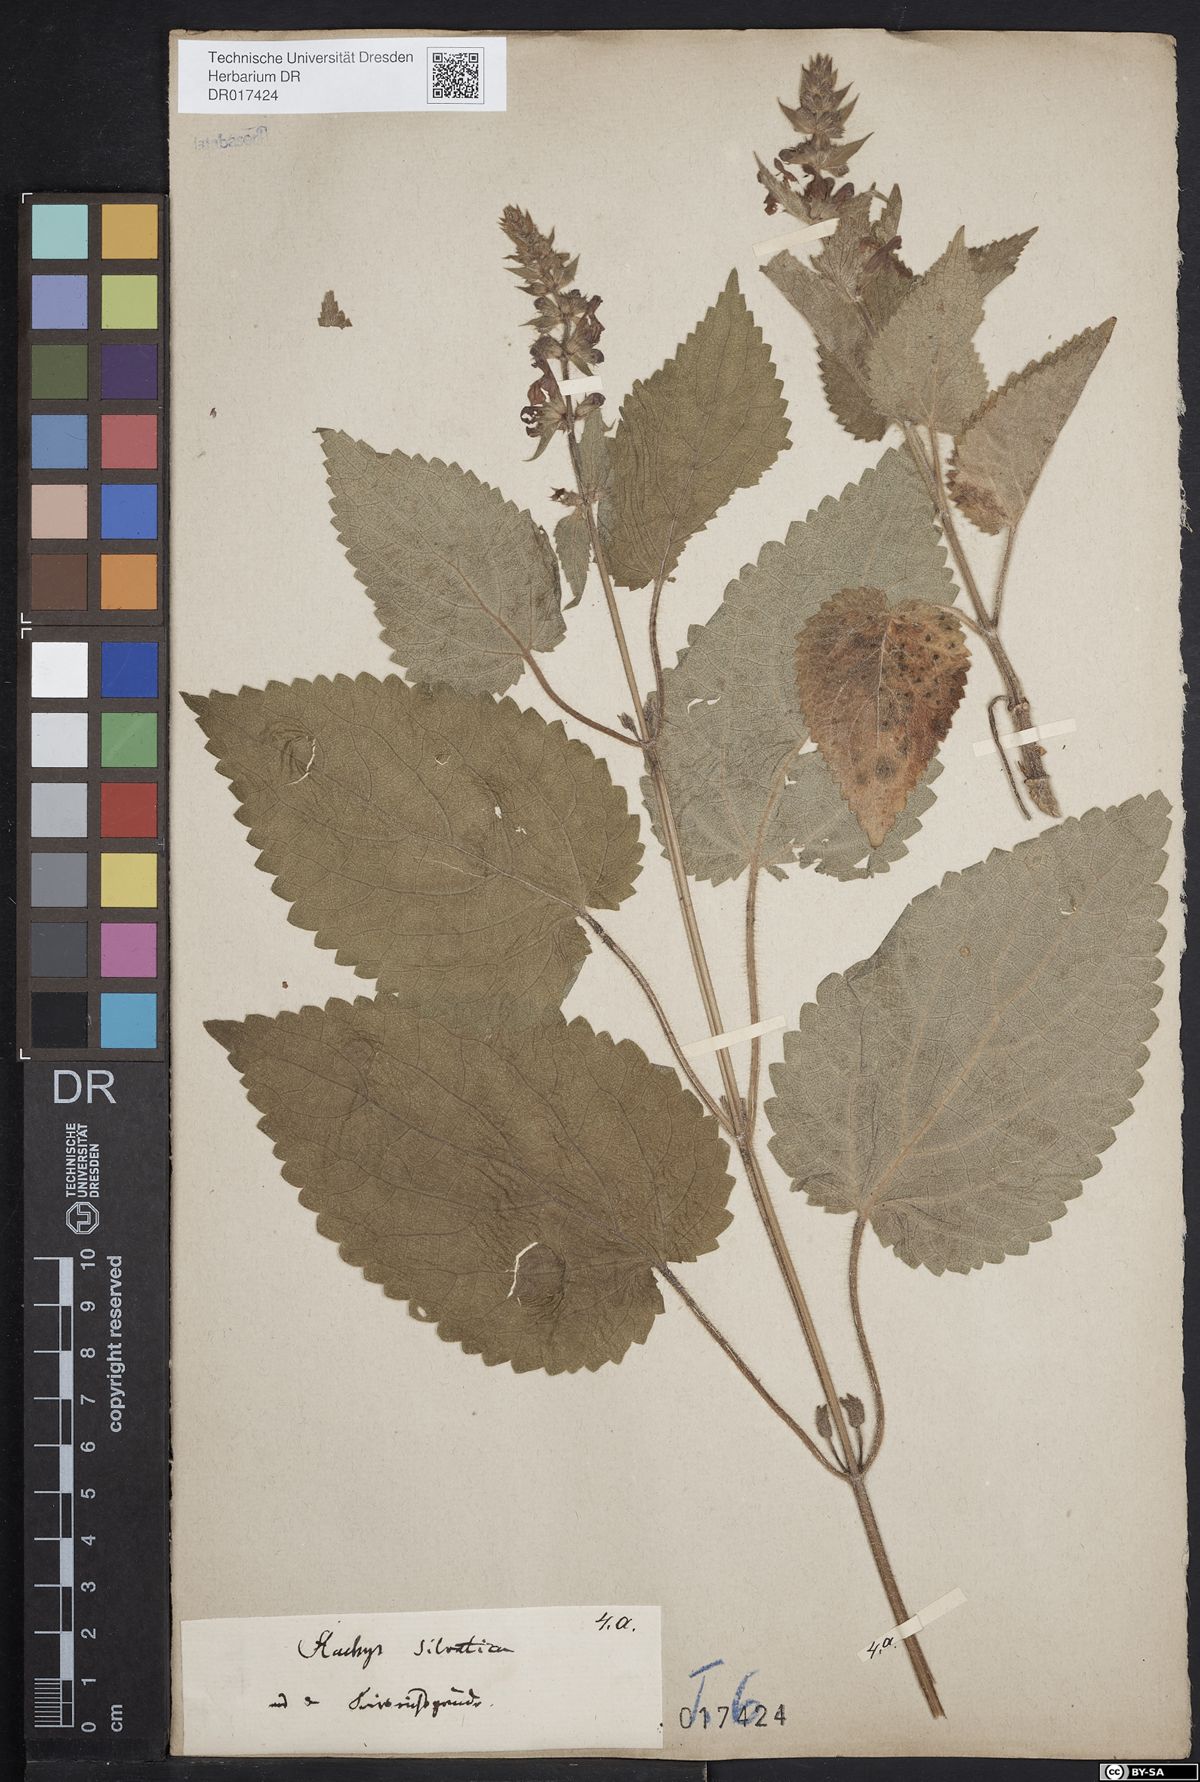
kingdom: Plantae
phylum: Tracheophyta
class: Magnoliopsida
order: Lamiales
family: Lamiaceae
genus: Stachys
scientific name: Stachys sylvatica
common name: Hedge woundwort
